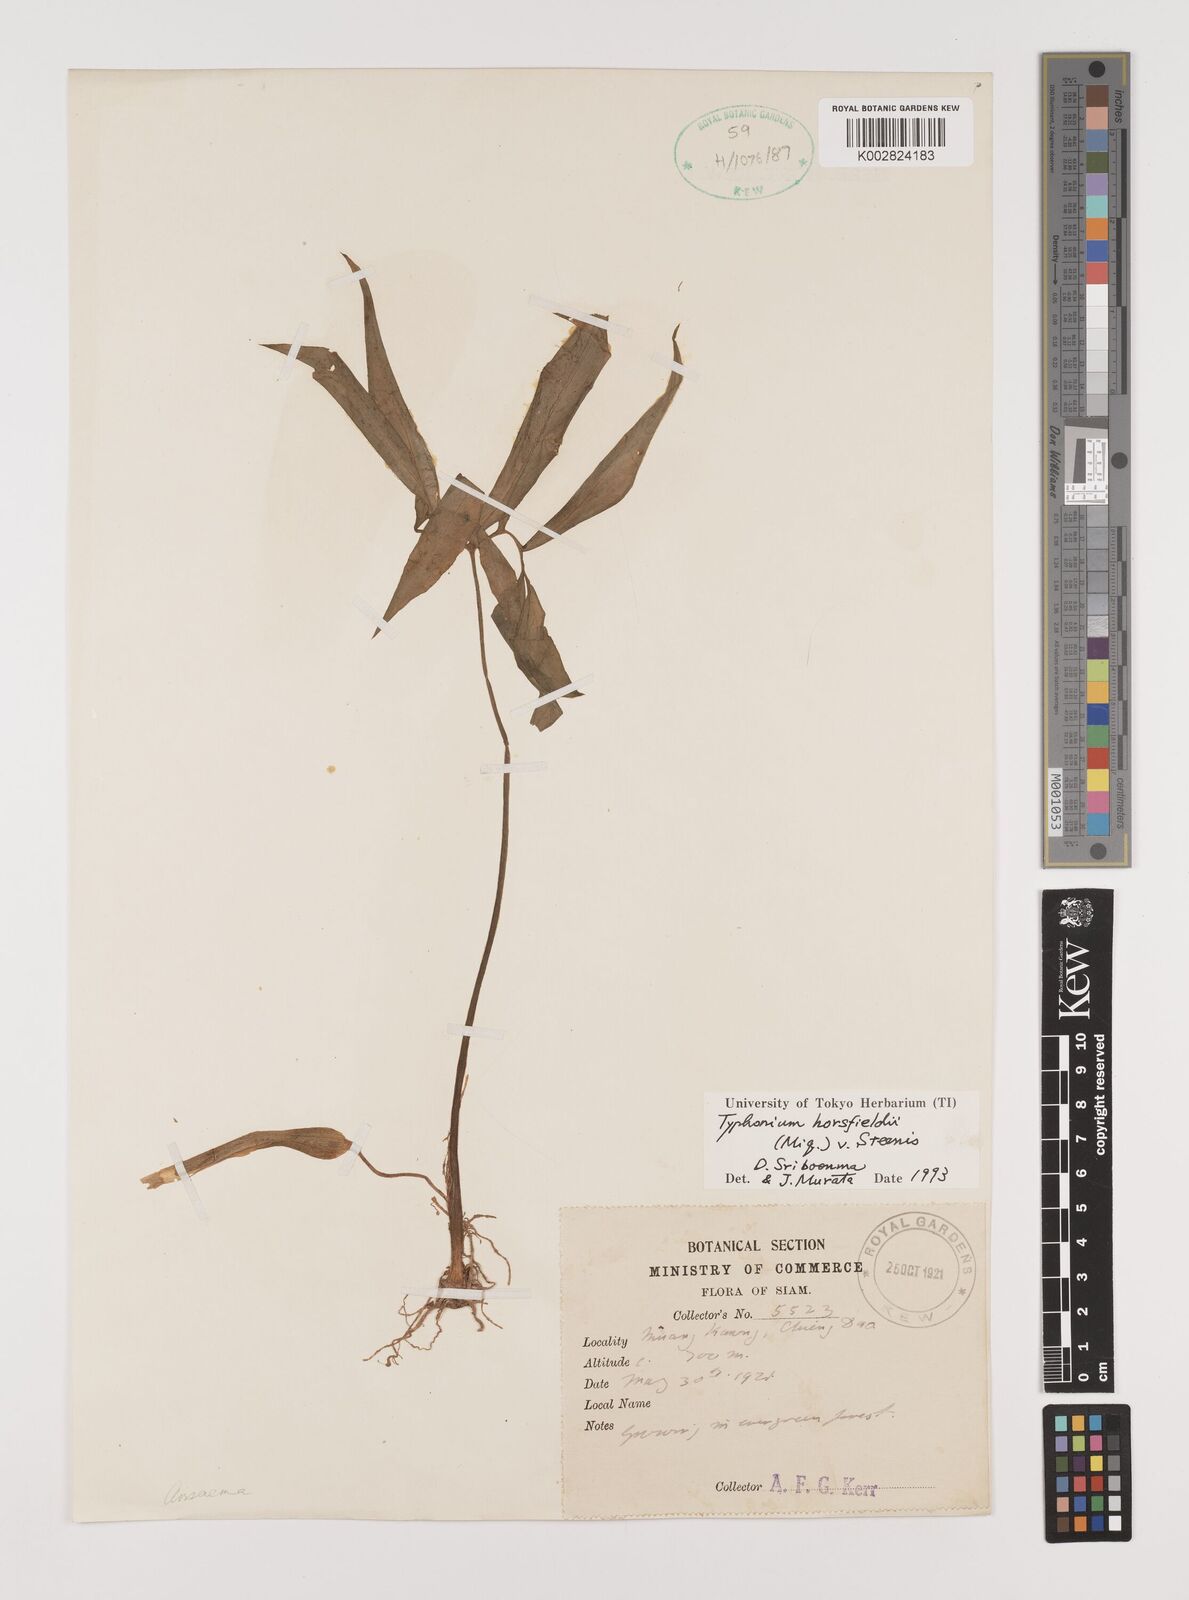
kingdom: Plantae
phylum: Tracheophyta
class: Liliopsida
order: Alismatales
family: Araceae
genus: Sauromatum
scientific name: Sauromatum horsfieldii
